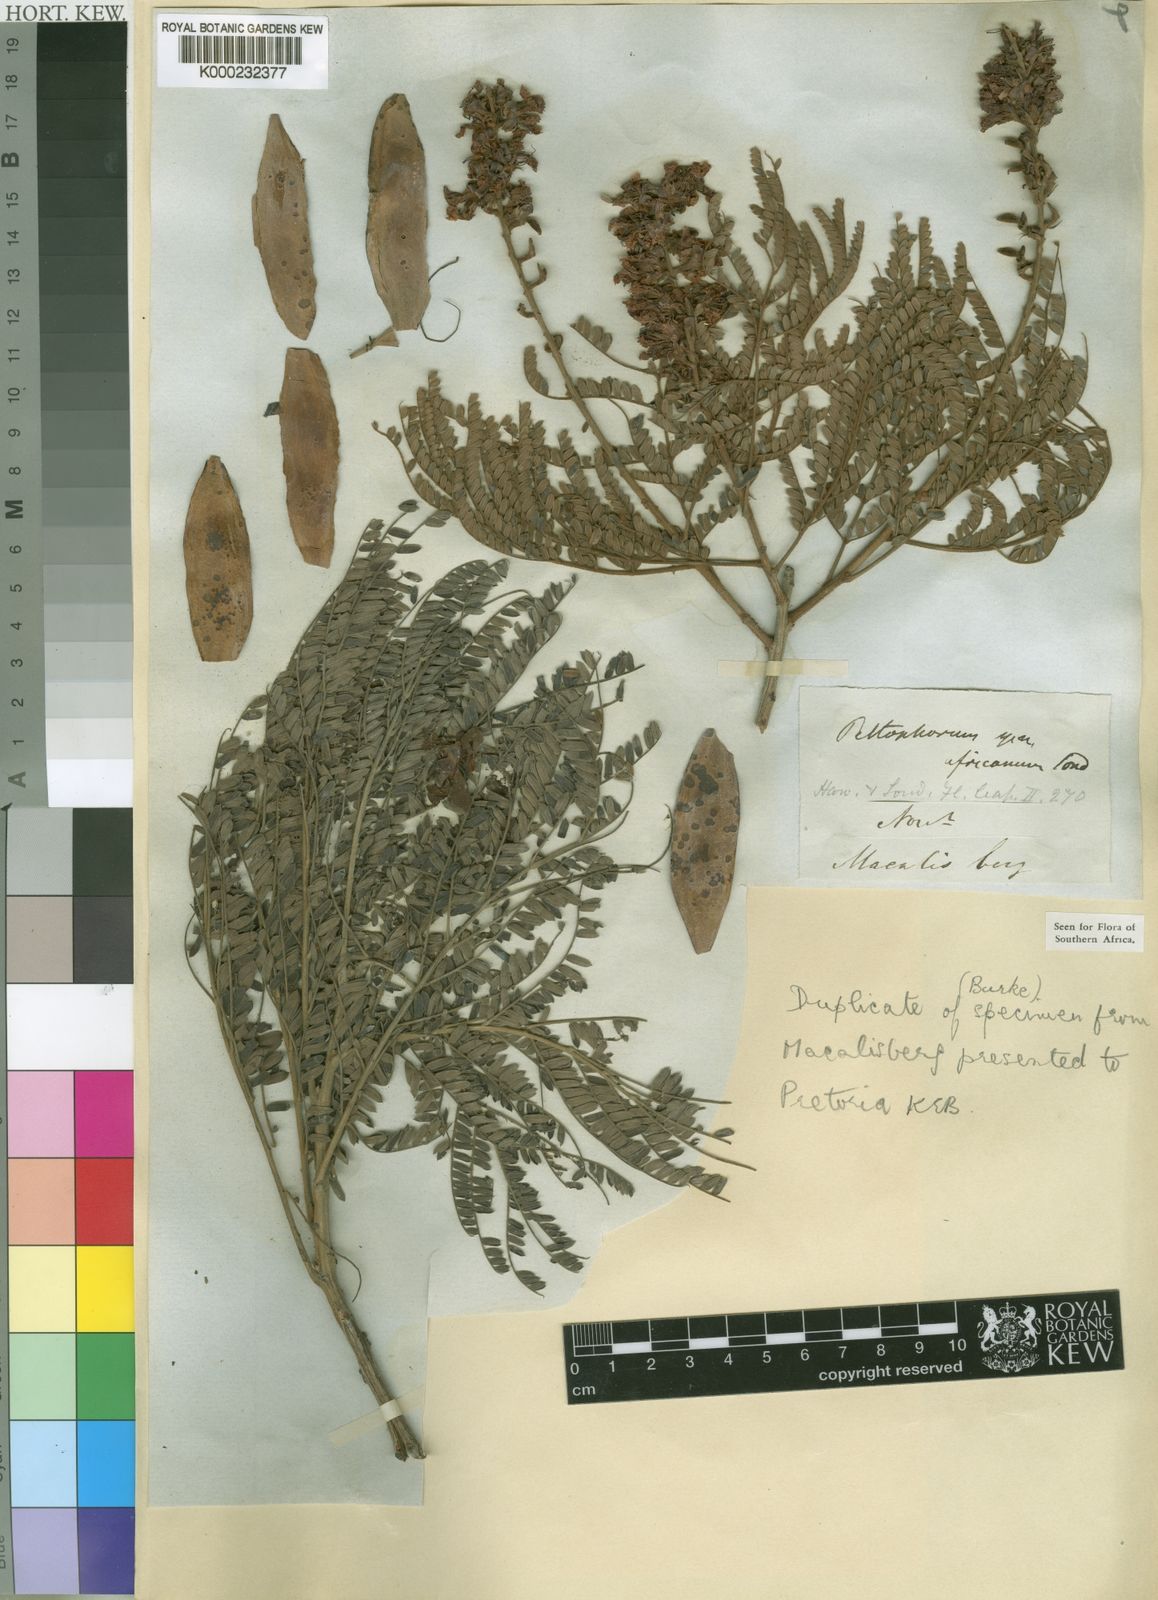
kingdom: Plantae
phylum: Tracheophyta
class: Magnoliopsida
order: Fabales
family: Fabaceae
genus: Peltophorum
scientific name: Peltophorum africanum
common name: African black wattle
